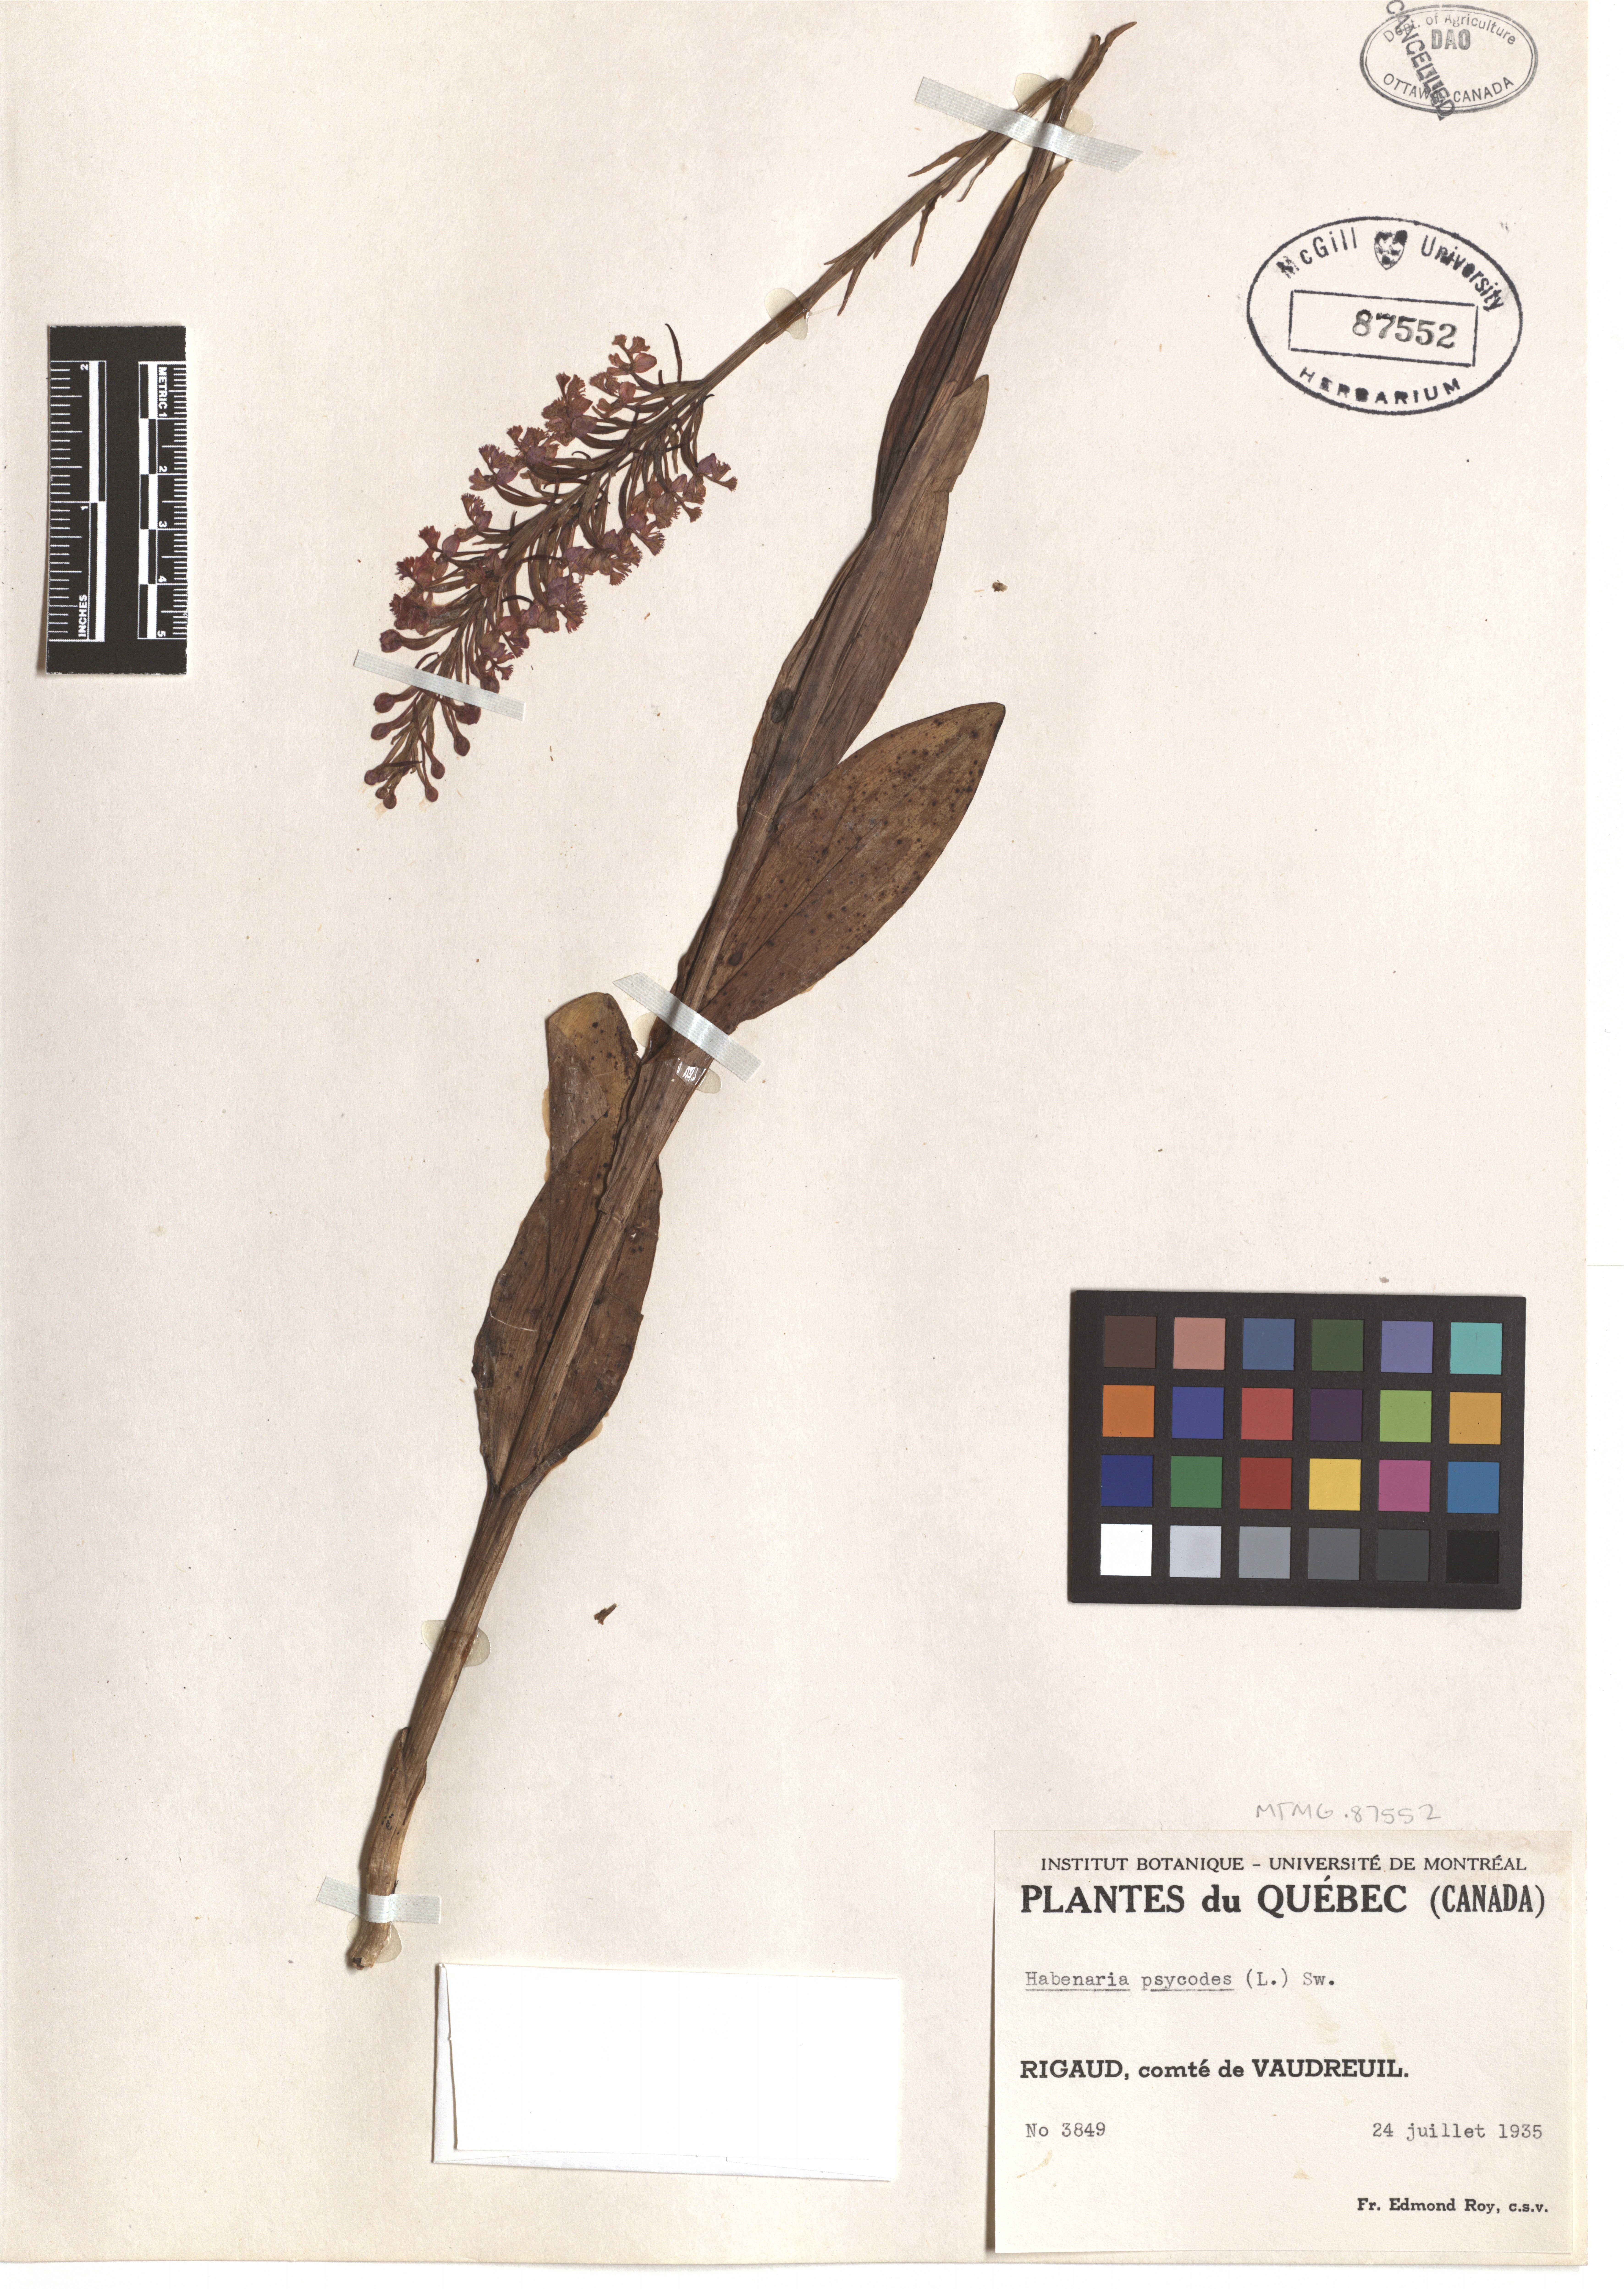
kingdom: Plantae
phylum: Tracheophyta
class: Liliopsida
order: Asparagales
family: Orchidaceae
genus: Platanthera
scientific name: Platanthera psycodes
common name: Lesser purple fringed orchid
